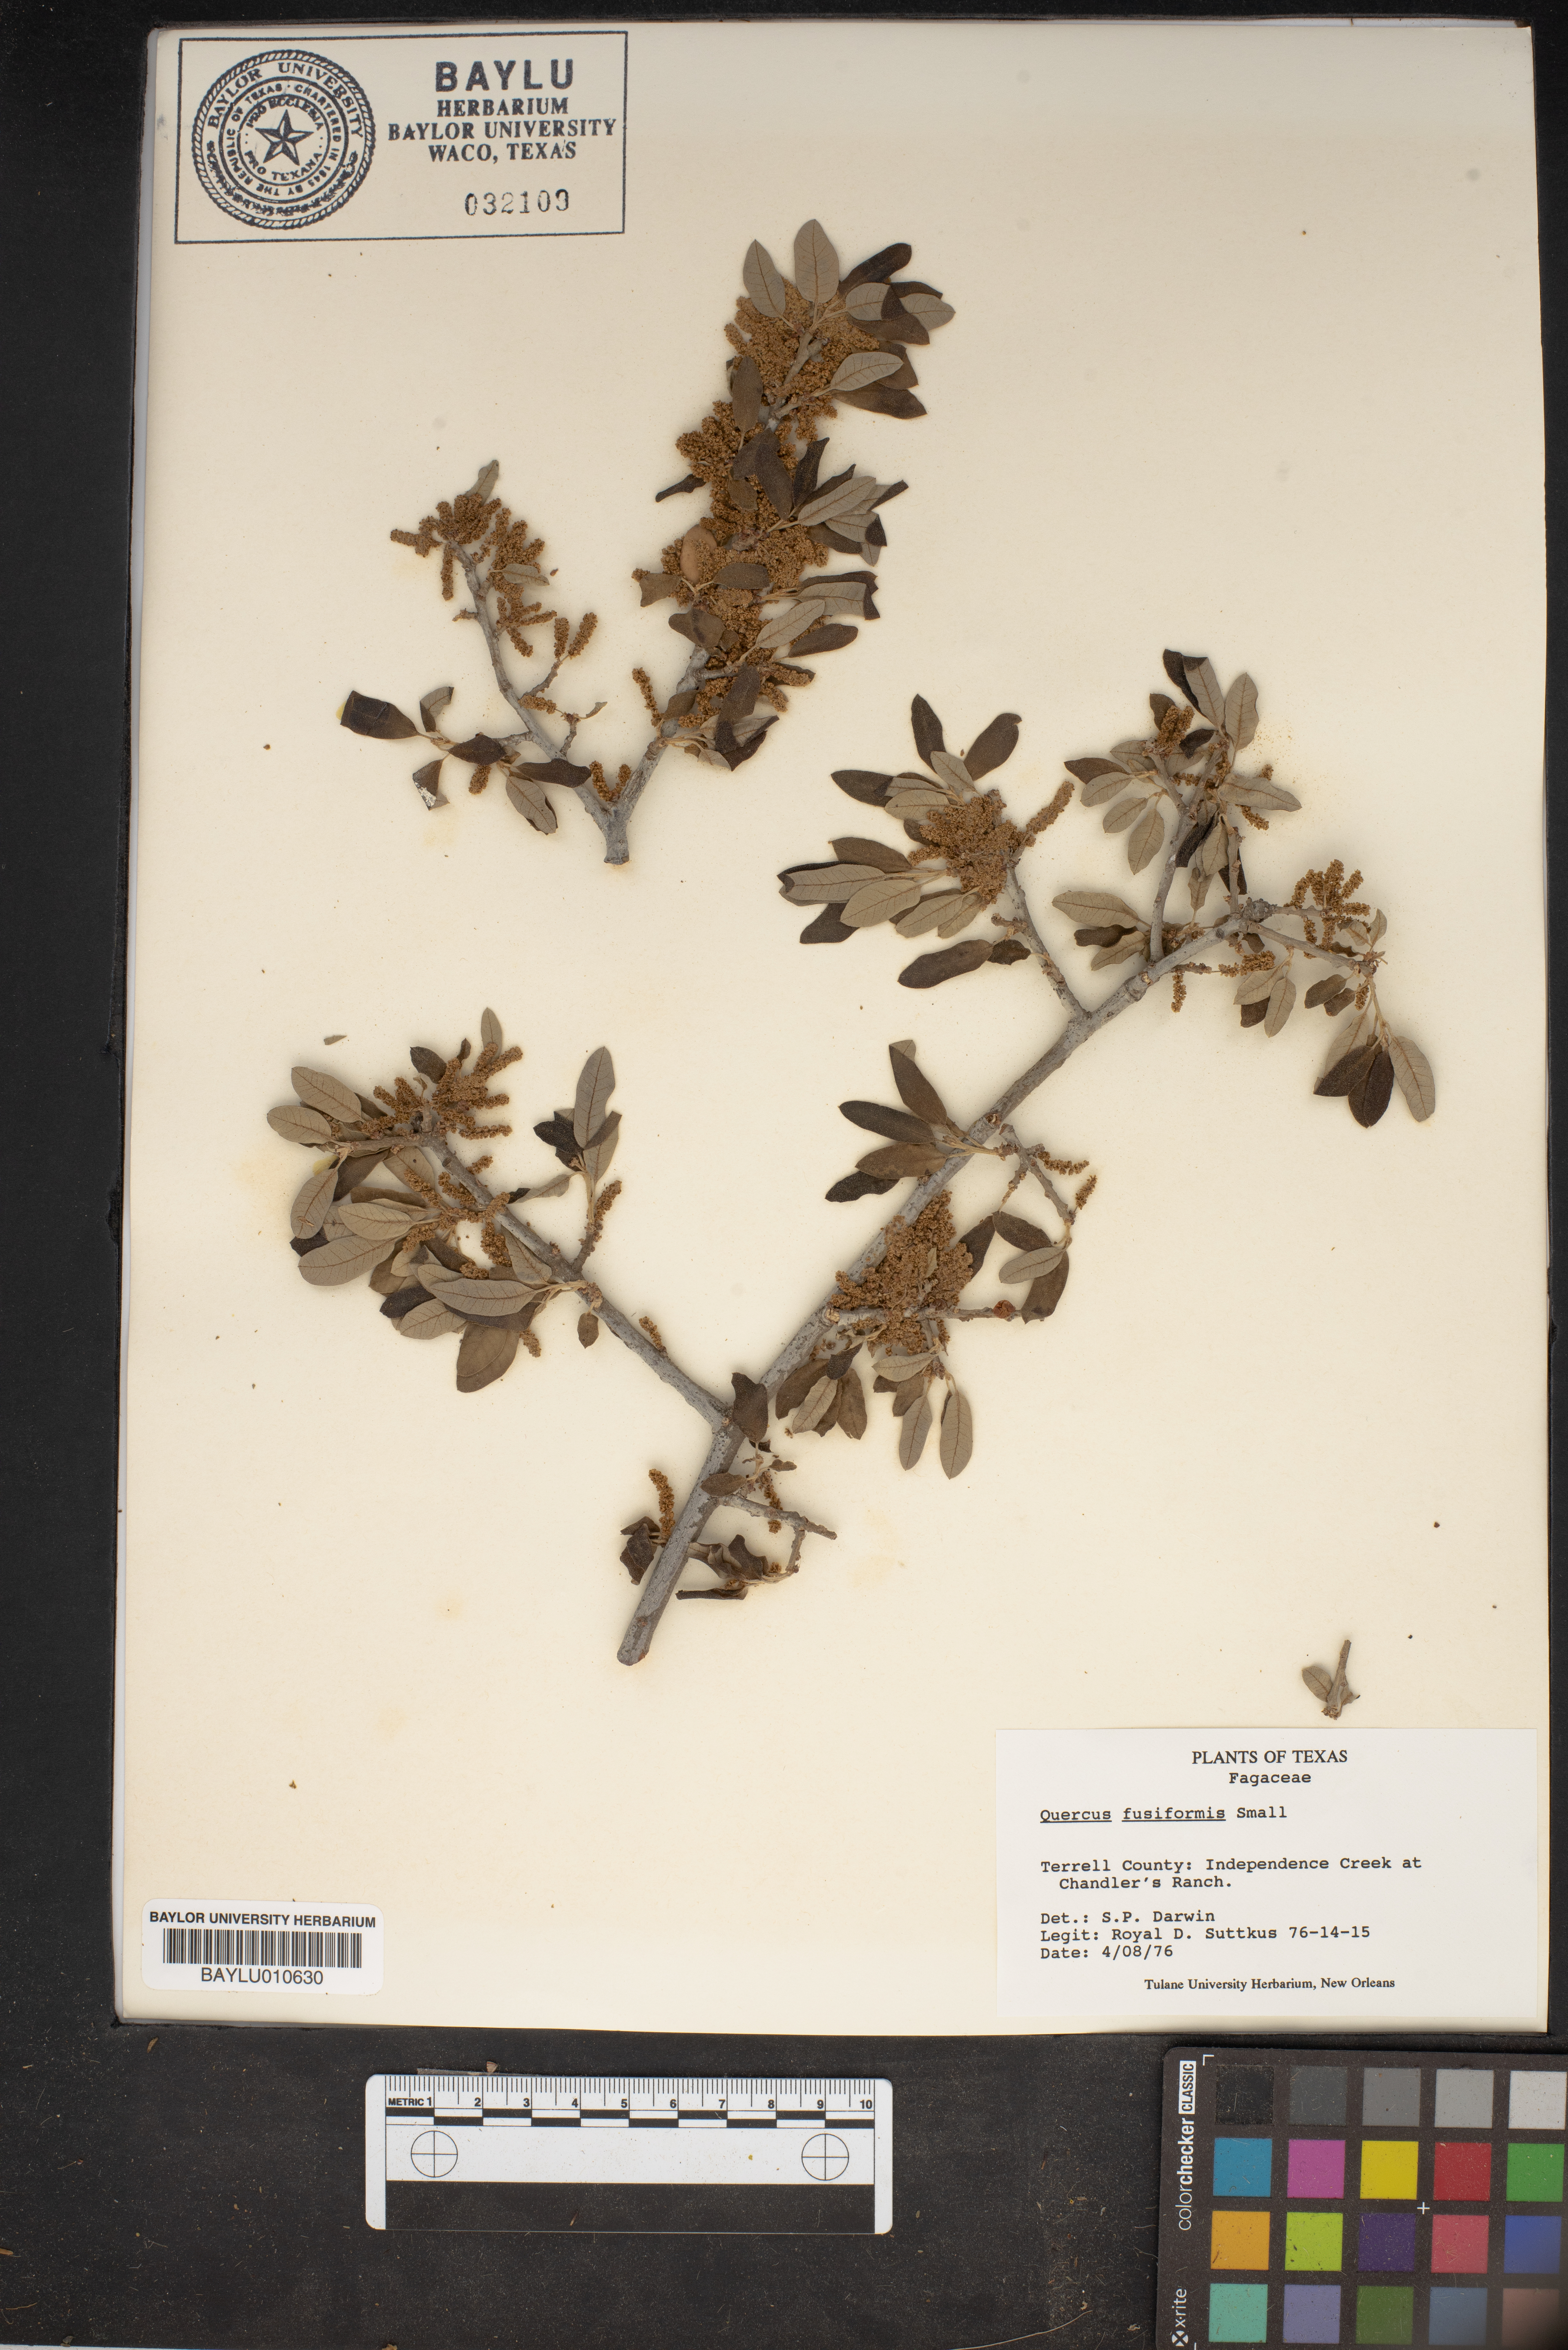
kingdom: Plantae
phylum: Tracheophyta
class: Magnoliopsida
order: Fagales
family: Fagaceae
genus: Quercus
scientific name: Quercus fusiformis
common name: Texas live oak
